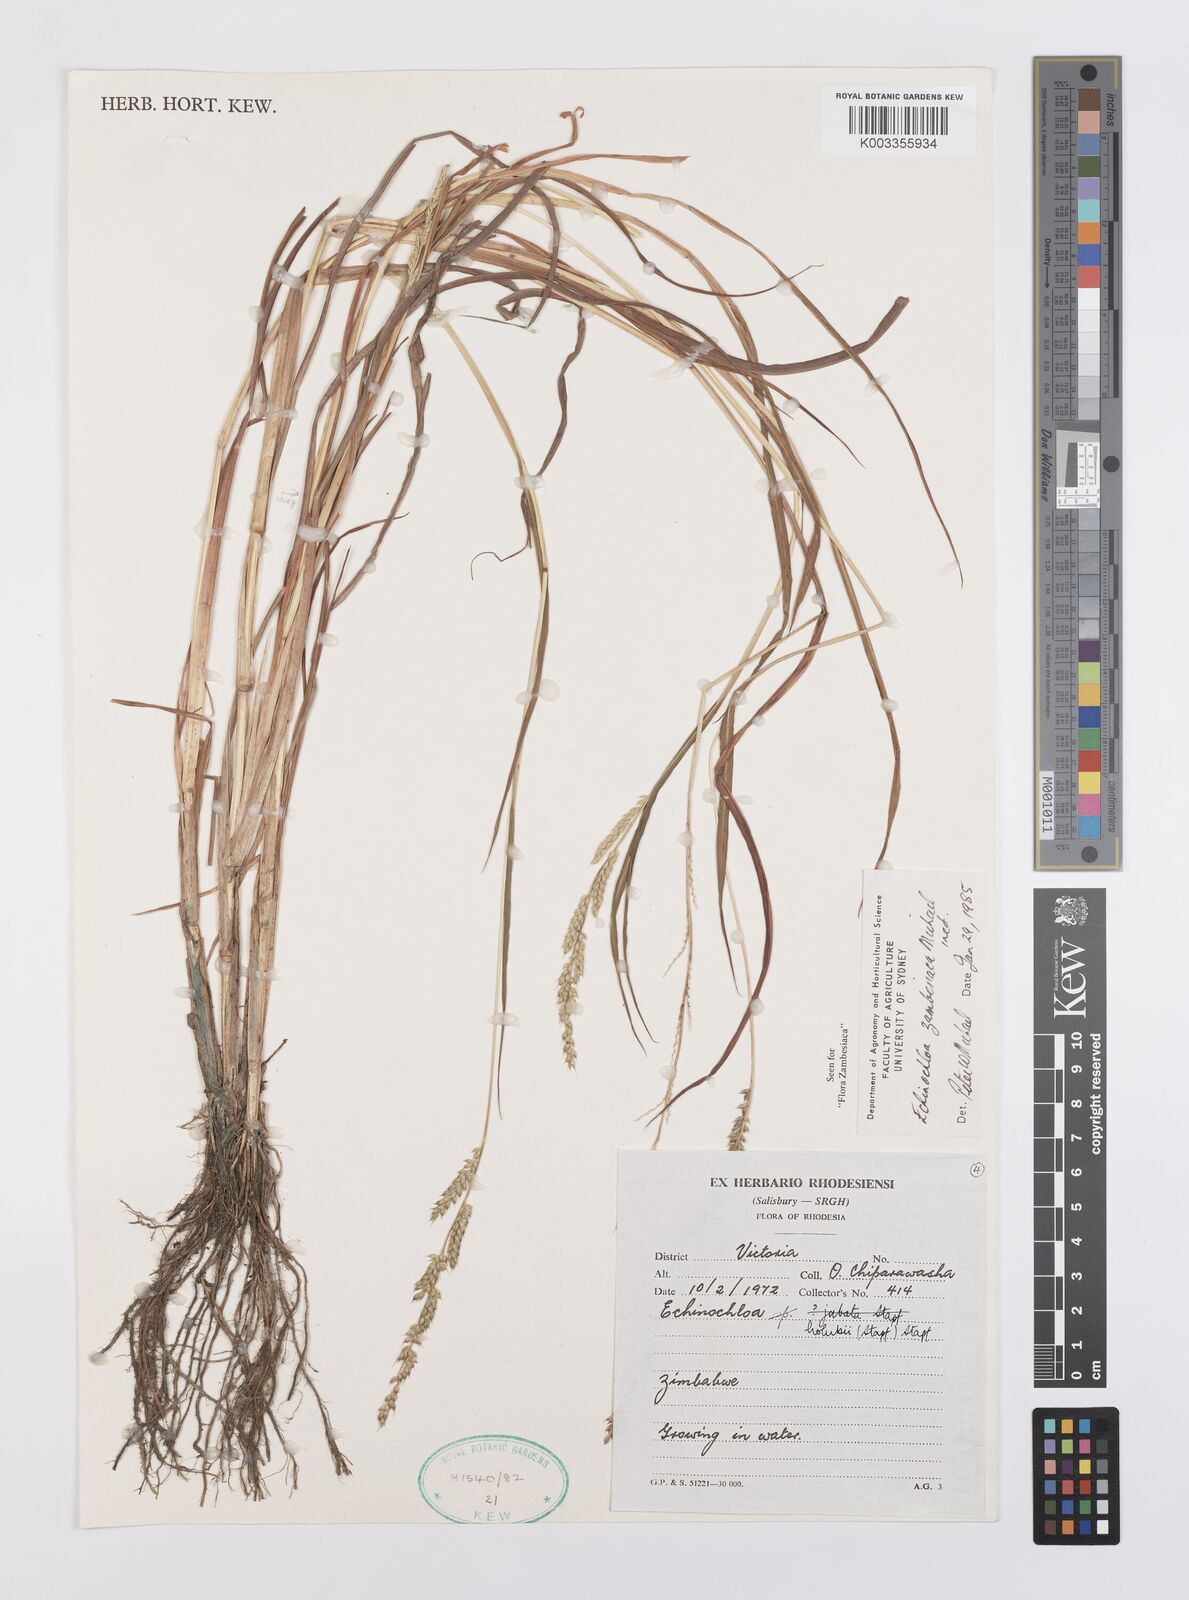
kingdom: Plantae
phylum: Tracheophyta
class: Liliopsida
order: Poales
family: Poaceae
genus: Echinochloa
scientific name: Echinochloa ugandensis
